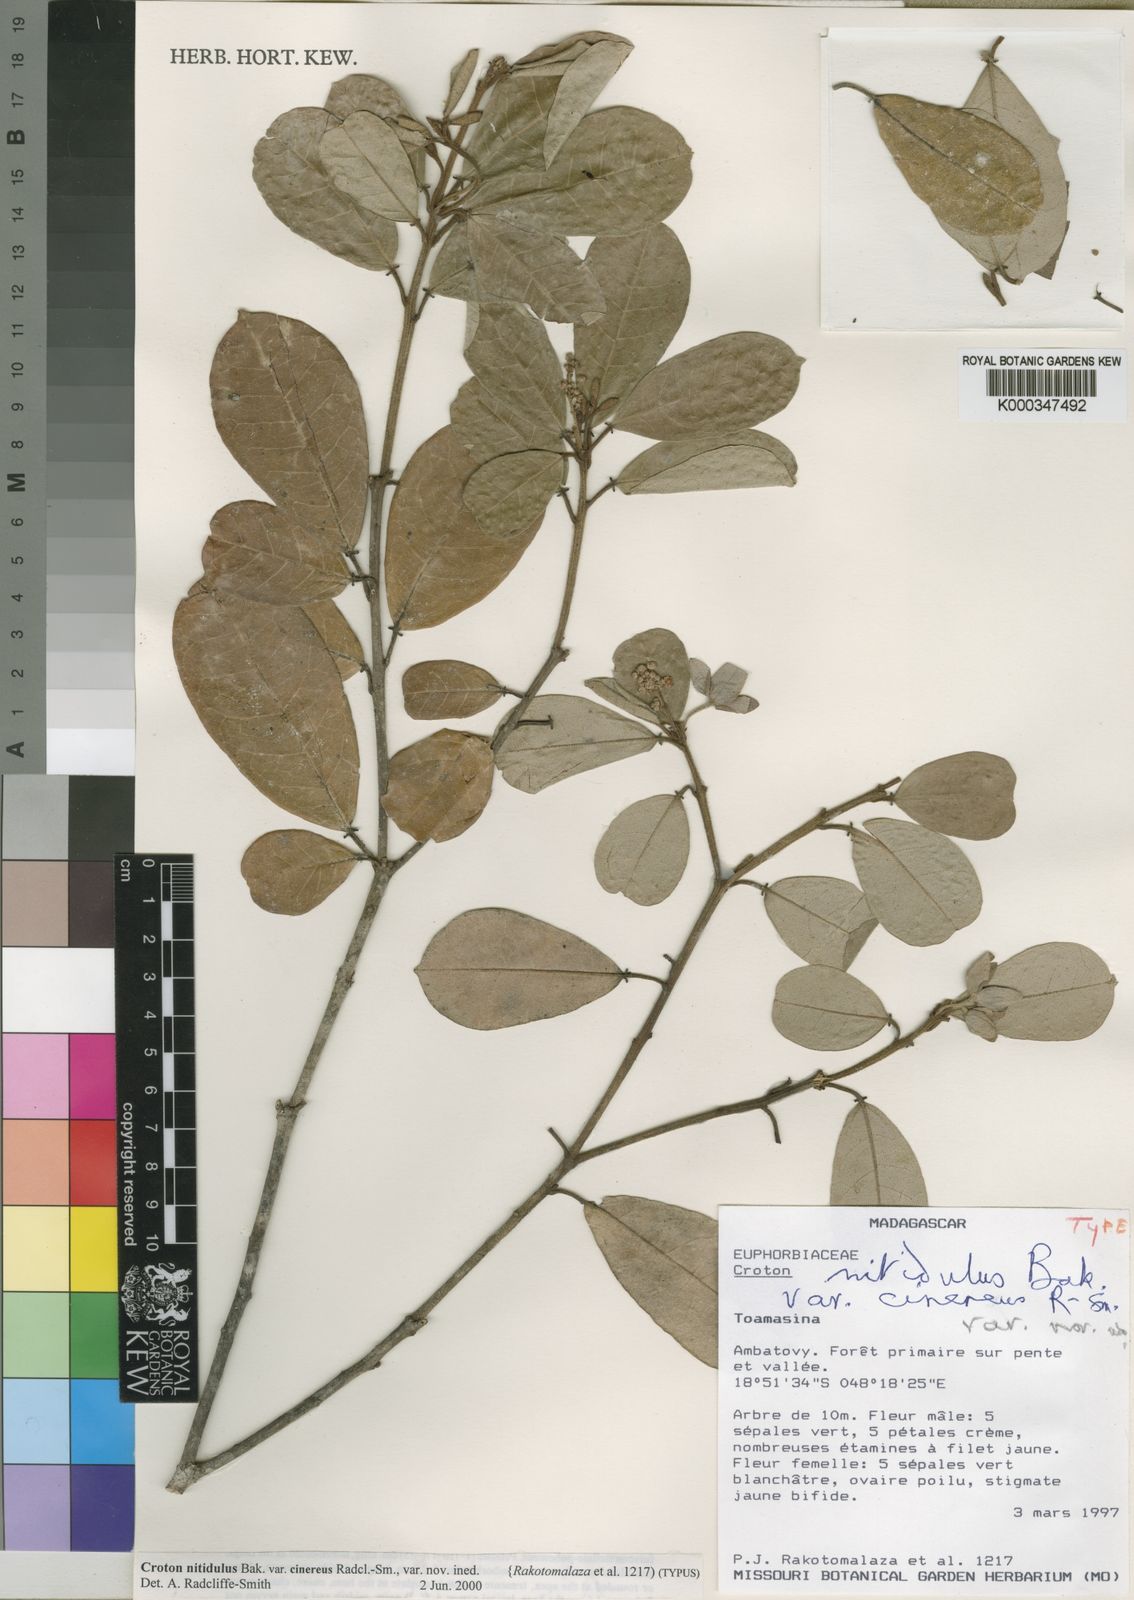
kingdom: Plantae
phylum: Tracheophyta
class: Magnoliopsida
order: Malpighiales
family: Euphorbiaceae
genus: Croton
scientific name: Croton
